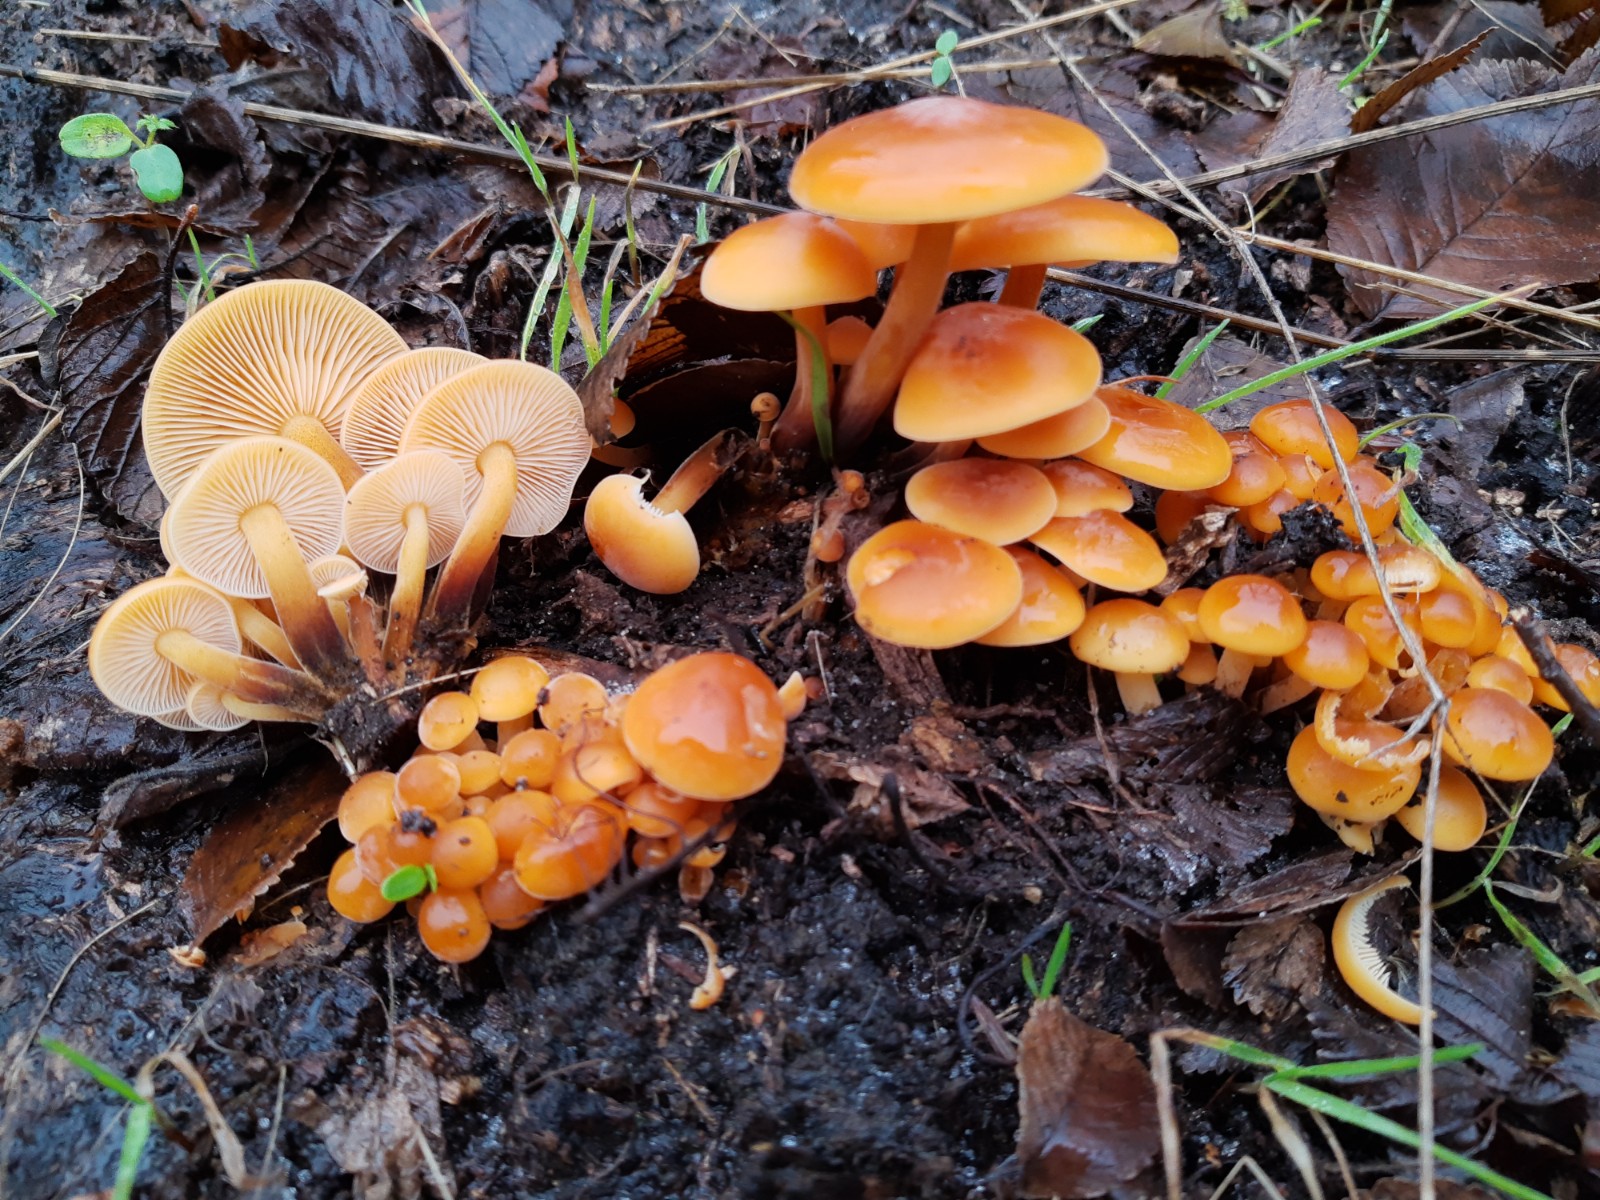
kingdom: Fungi
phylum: Basidiomycota
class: Agaricomycetes
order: Agaricales
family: Physalacriaceae
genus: Flammulina
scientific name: Flammulina velutipes
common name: gul fløjlsfod
